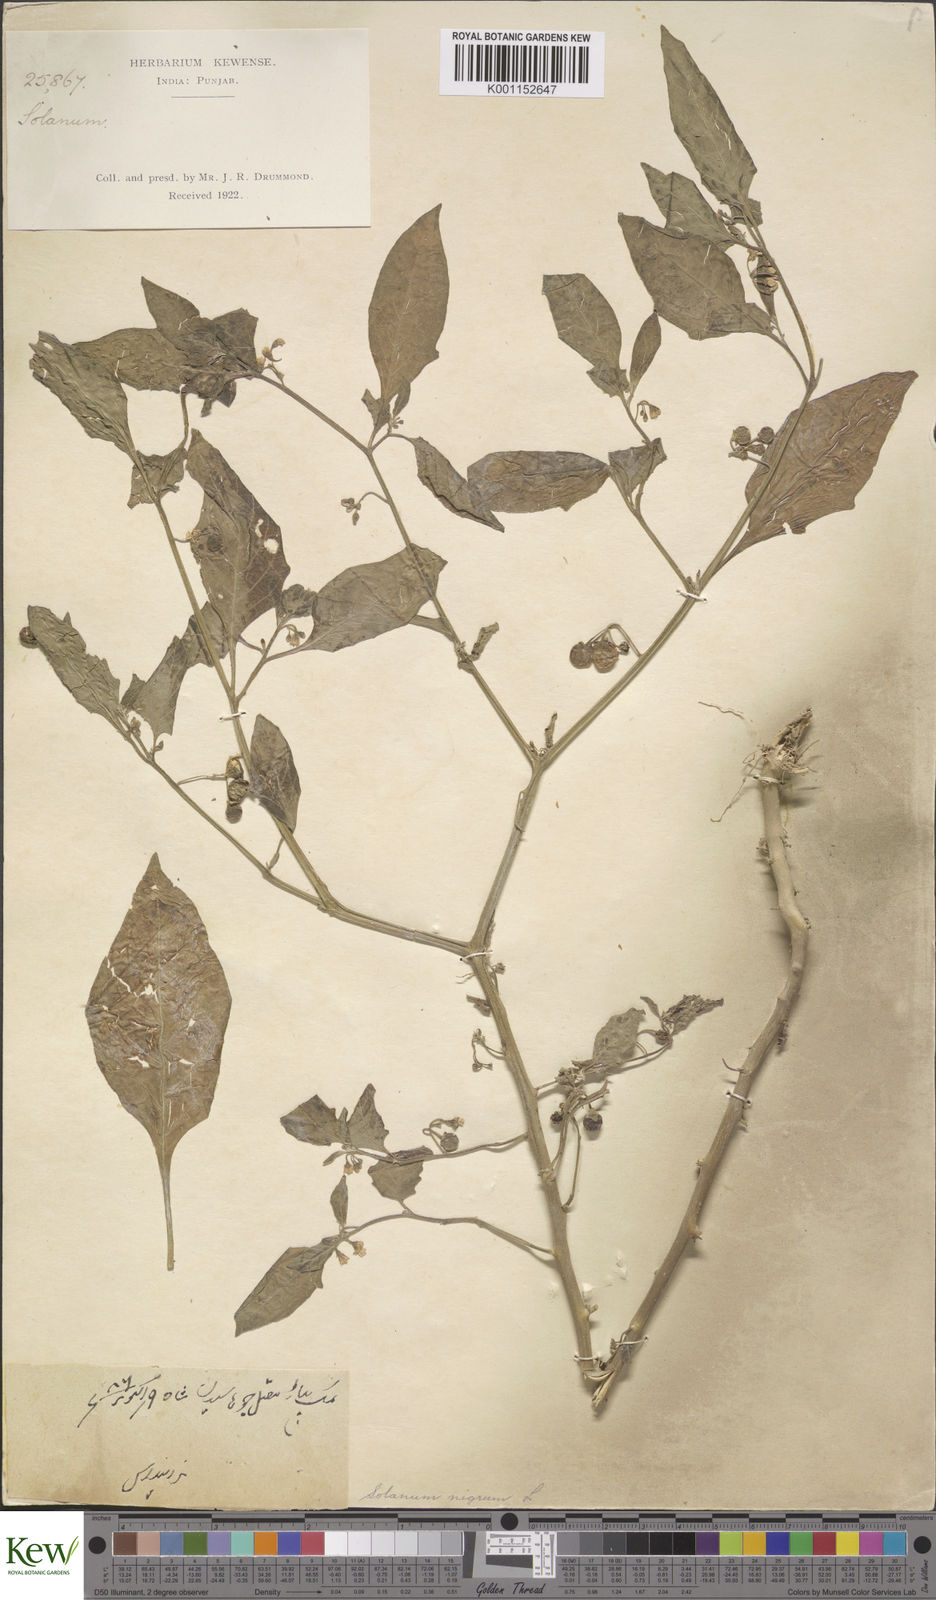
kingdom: Plantae
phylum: Tracheophyta
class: Magnoliopsida
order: Solanales
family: Solanaceae
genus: Solanum
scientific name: Solanum nigrum
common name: Black nightshade
